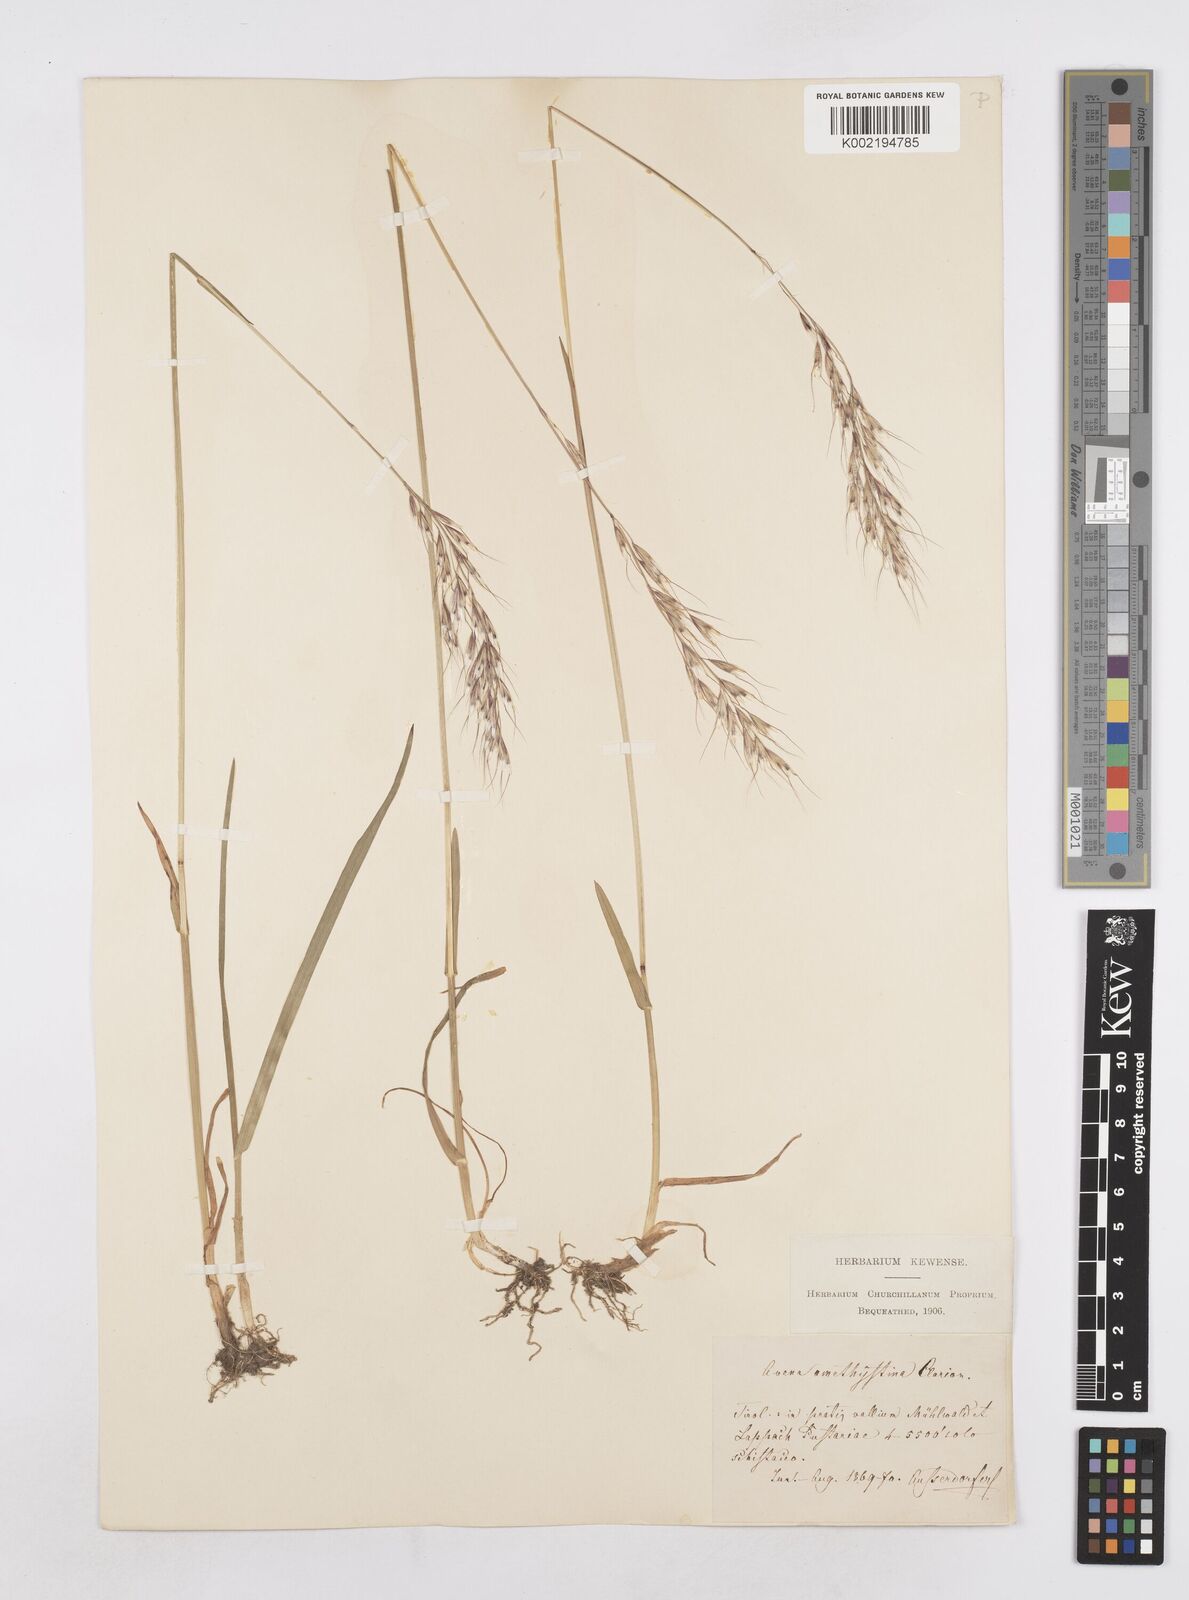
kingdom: Plantae
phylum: Tracheophyta
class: Liliopsida
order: Poales
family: Poaceae
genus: Avenula
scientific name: Avenula pubescens
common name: Downy alpine oatgrass
